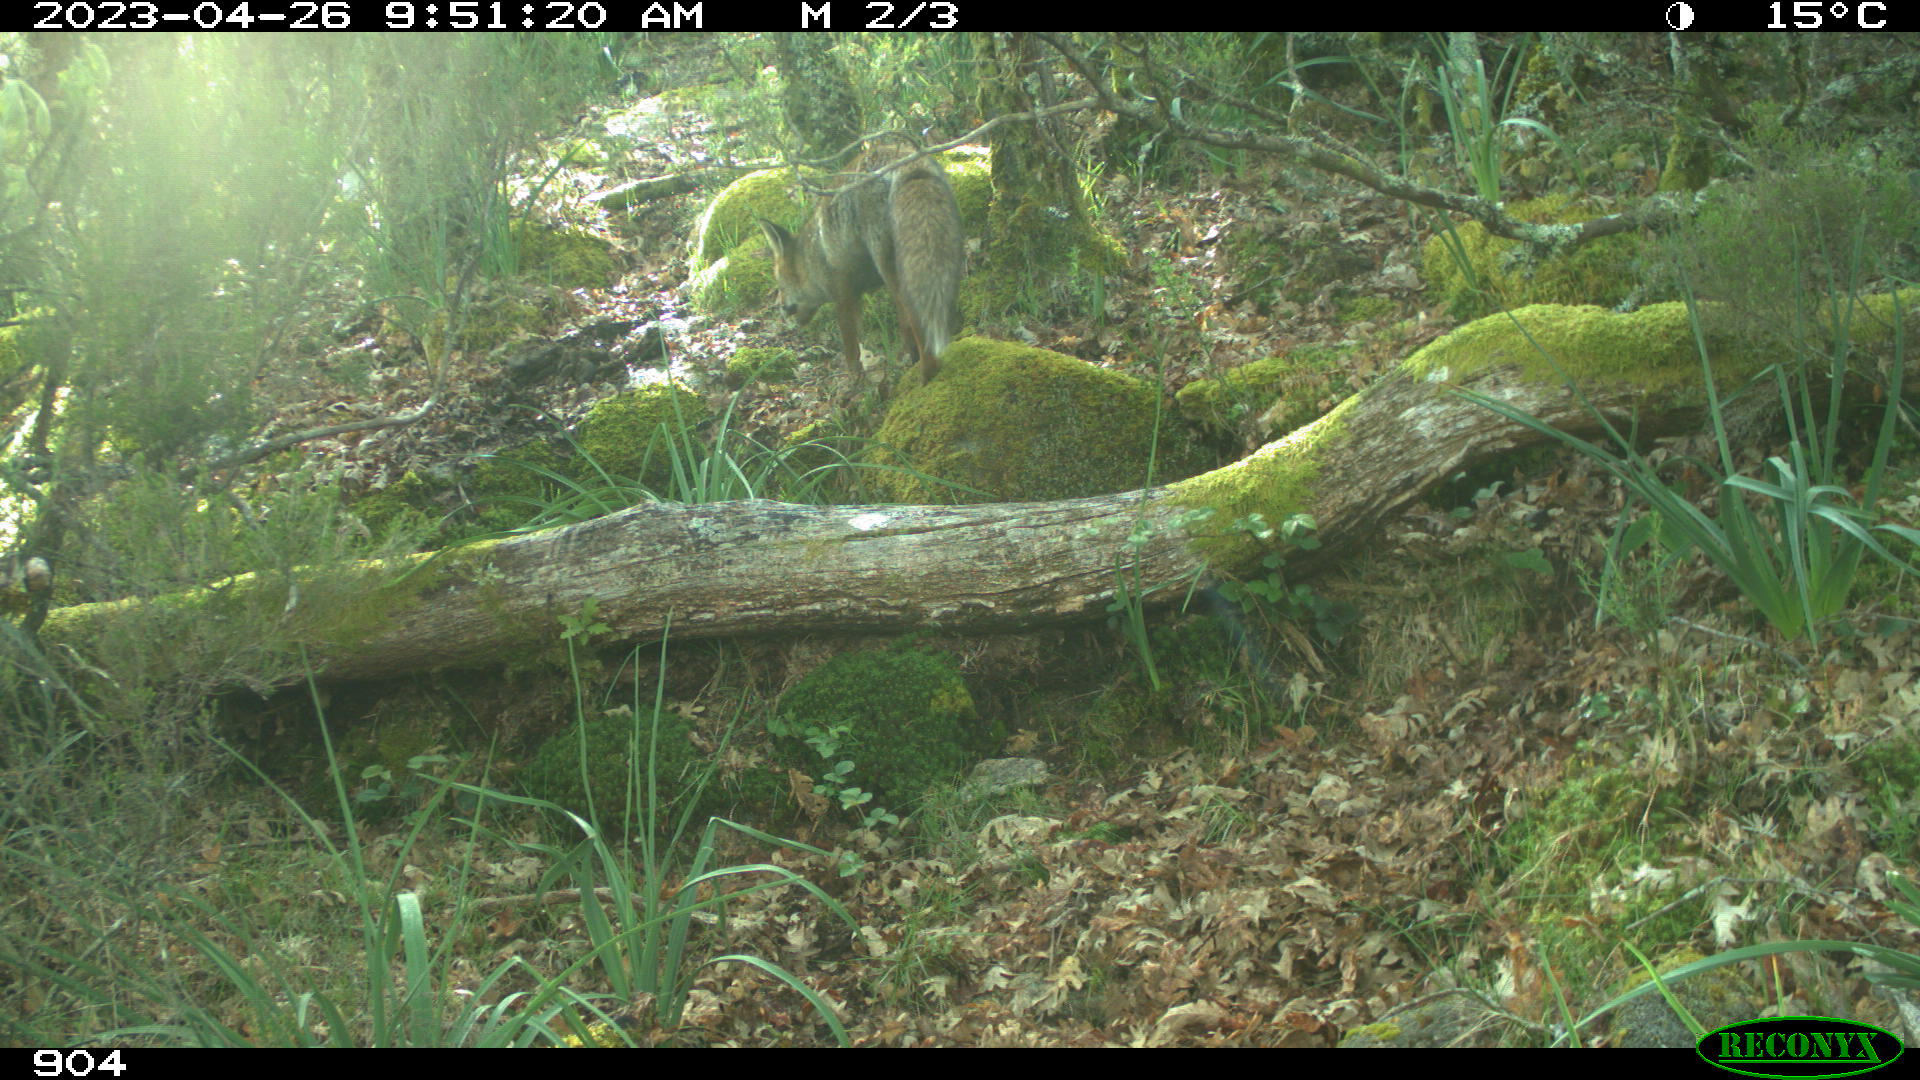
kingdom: Animalia
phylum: Chordata
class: Mammalia
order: Carnivora
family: Canidae
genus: Vulpes
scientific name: Vulpes vulpes
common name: Red fox
